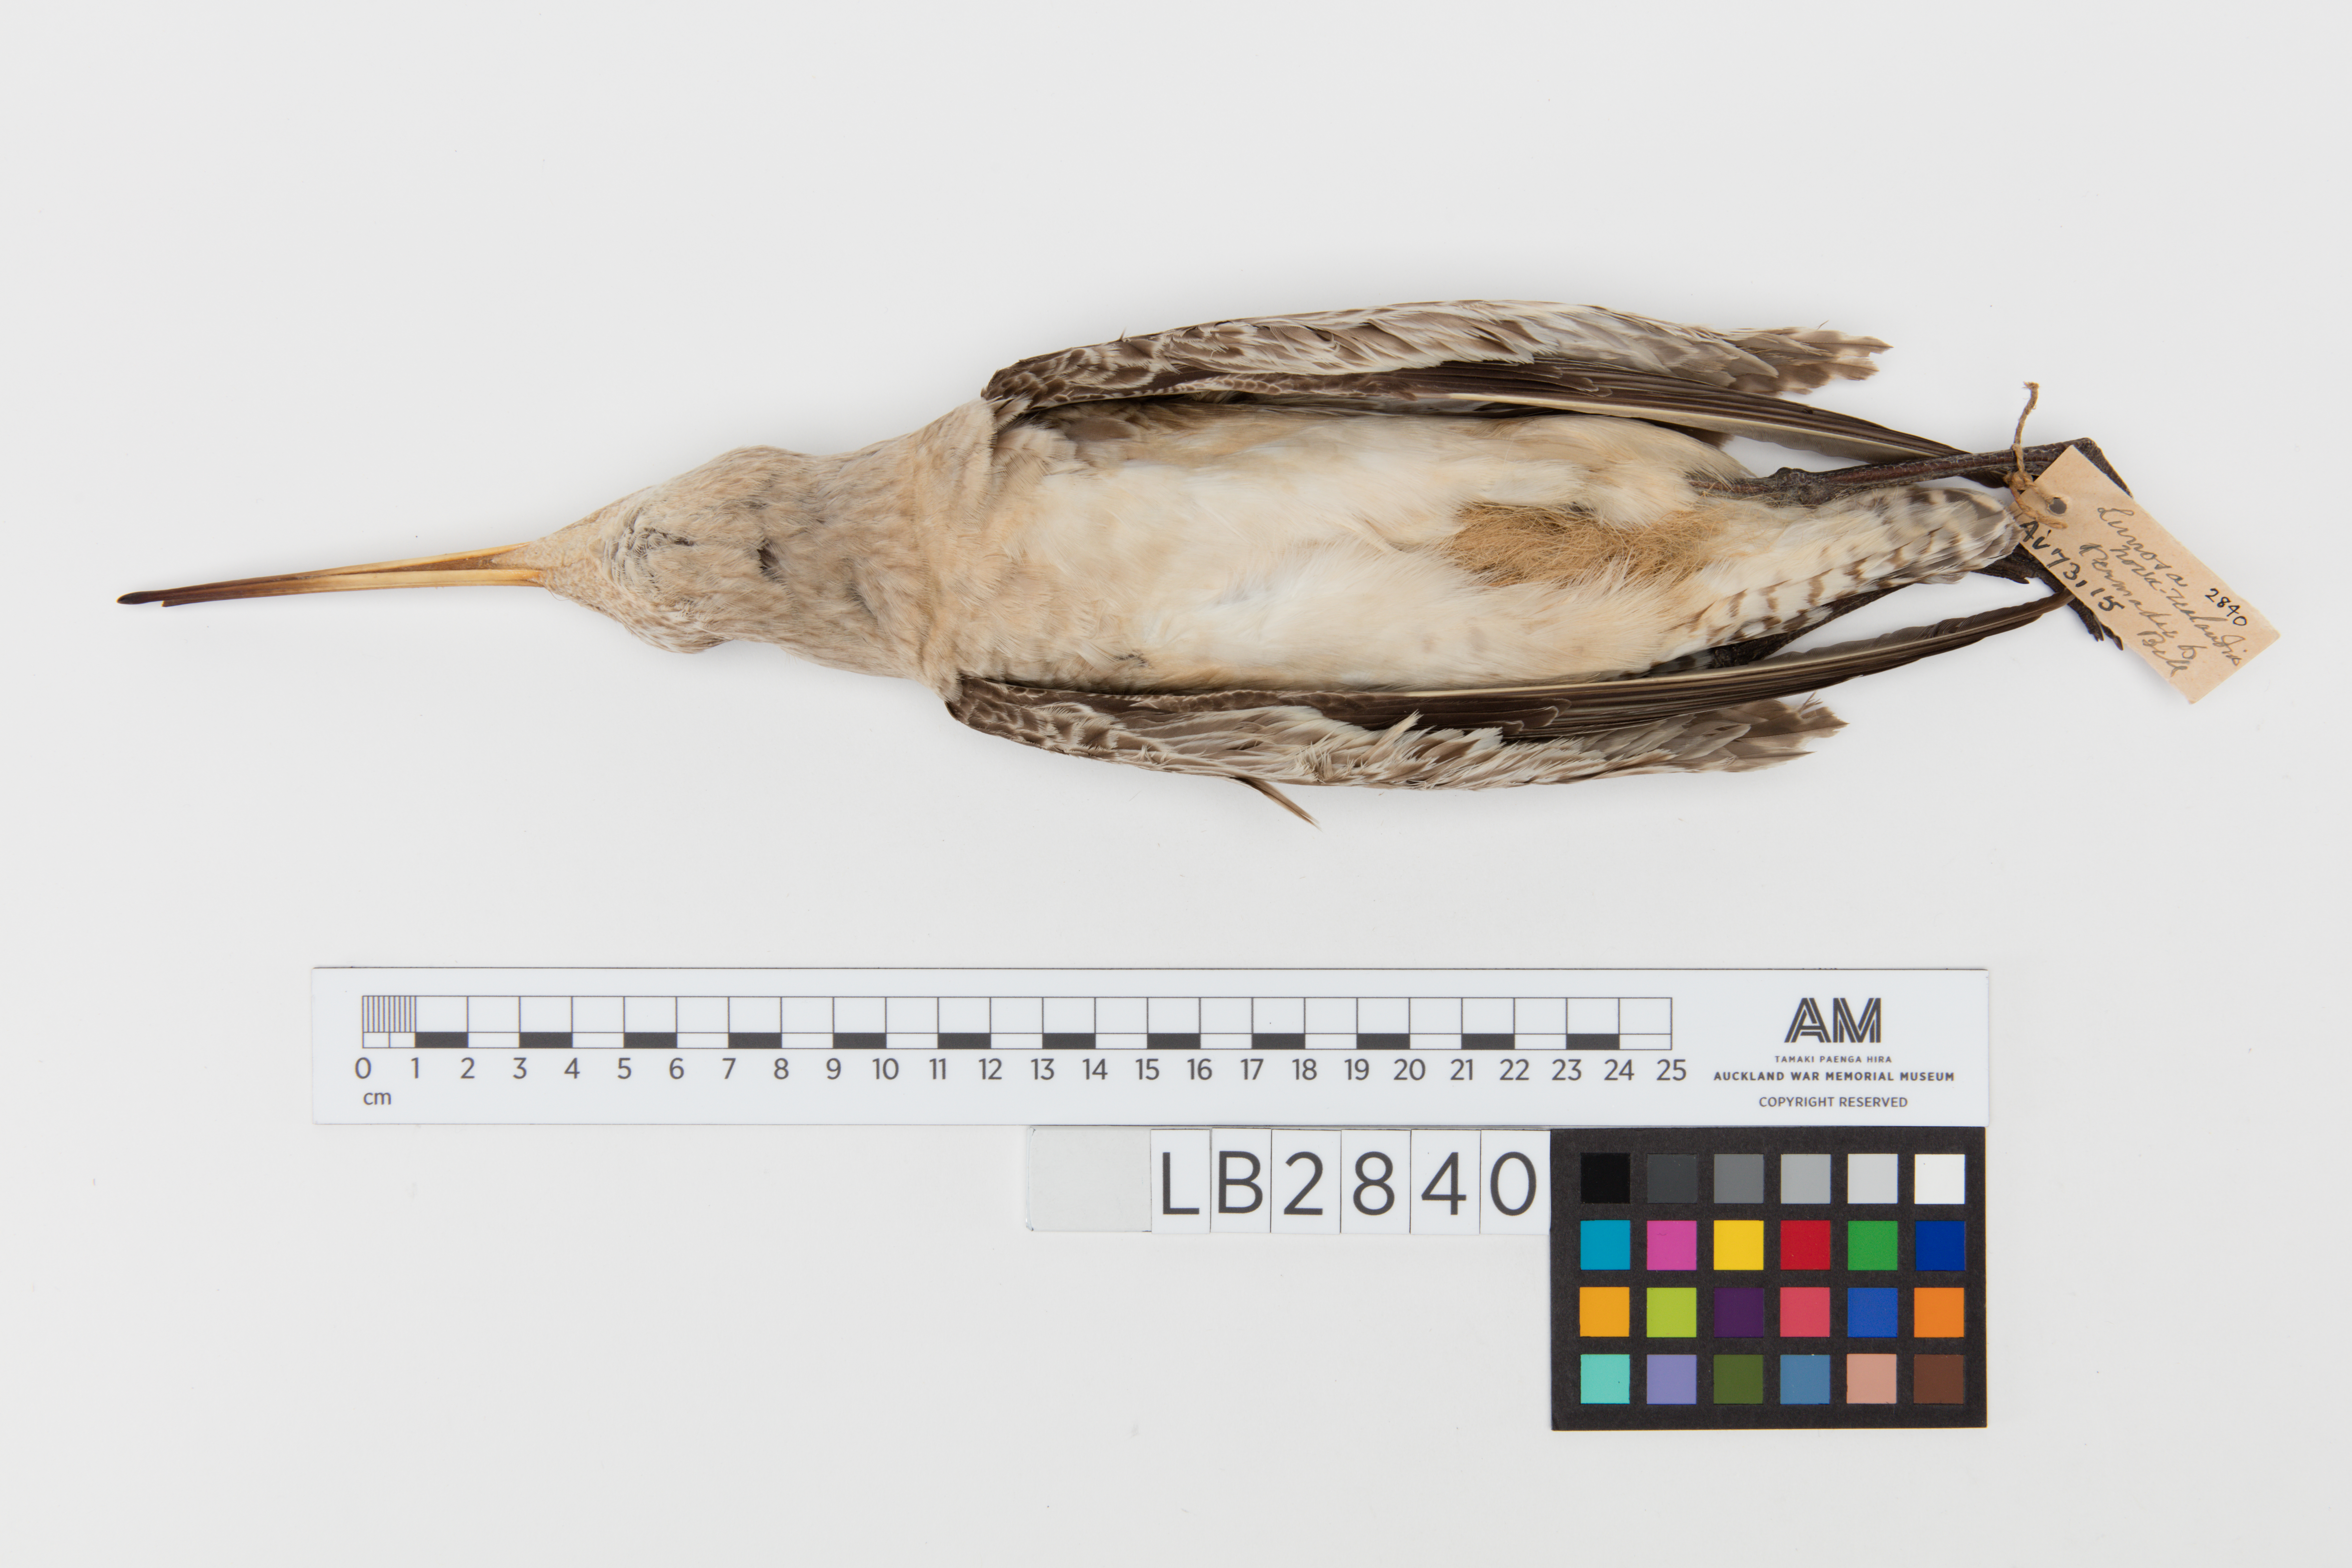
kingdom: Animalia
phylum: Chordata
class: Aves
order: Charadriiformes
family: Scolopacidae
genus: Limosa
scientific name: Limosa lapponica
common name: Bar-tailed godwit
